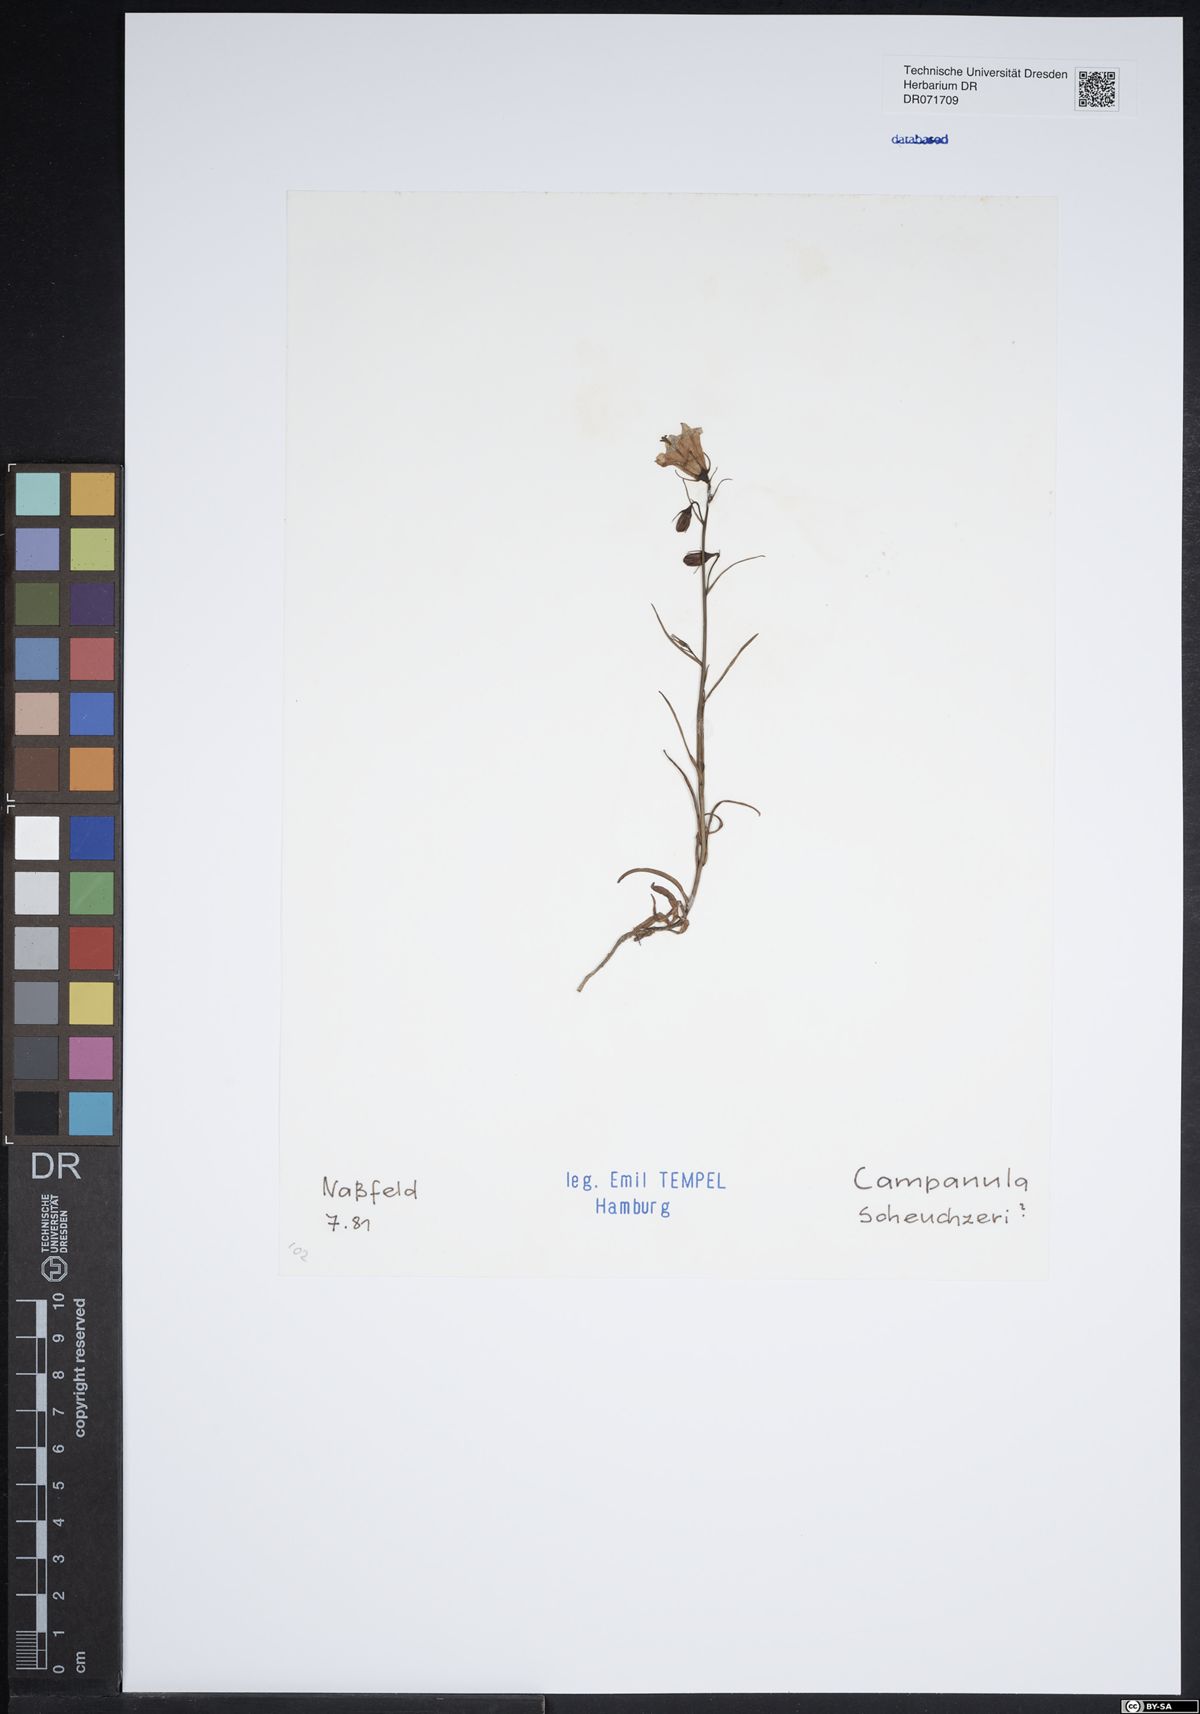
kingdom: Plantae
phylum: Tracheophyta
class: Magnoliopsida
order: Asterales
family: Campanulaceae
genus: Campanula
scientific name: Campanula scheuchzeri
